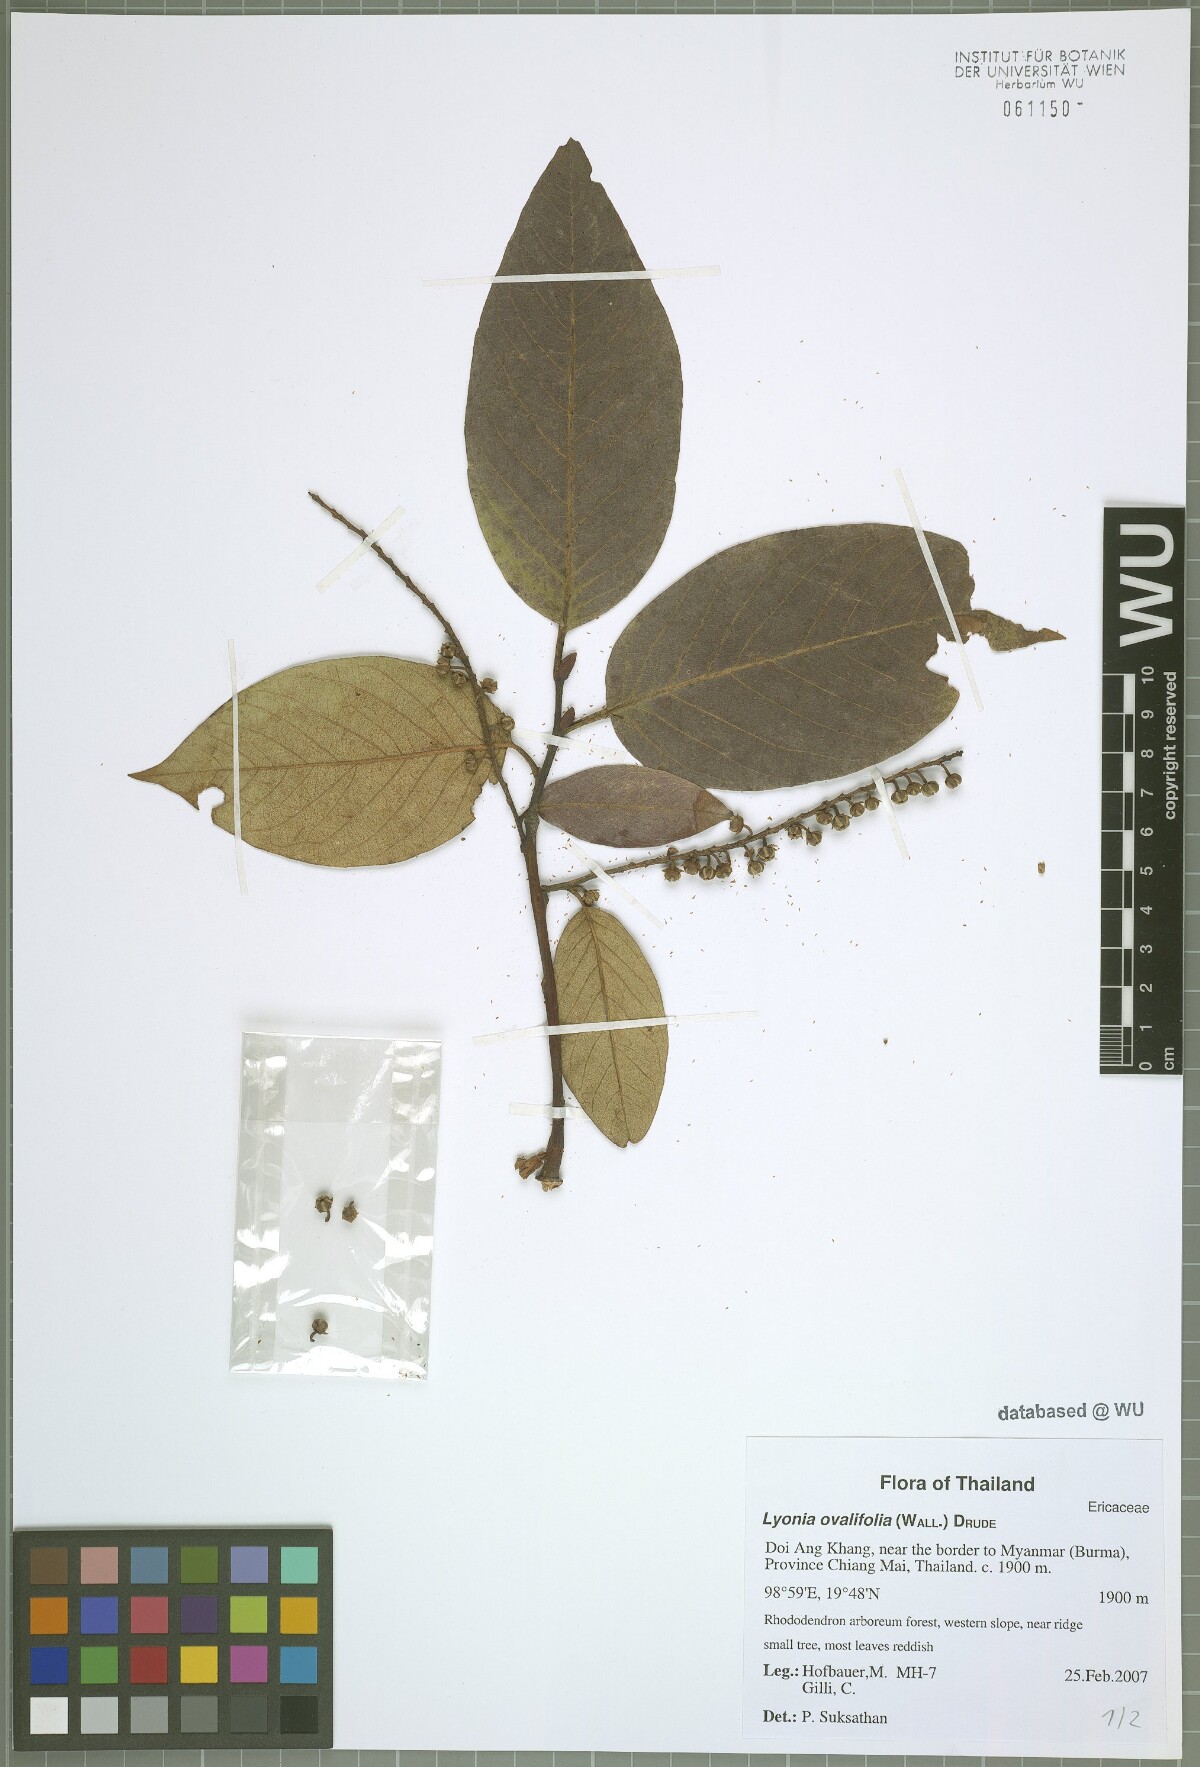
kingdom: Plantae
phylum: Tracheophyta
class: Magnoliopsida
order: Ericales
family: Ericaceae
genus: Lyonia
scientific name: Lyonia ovalifolia
